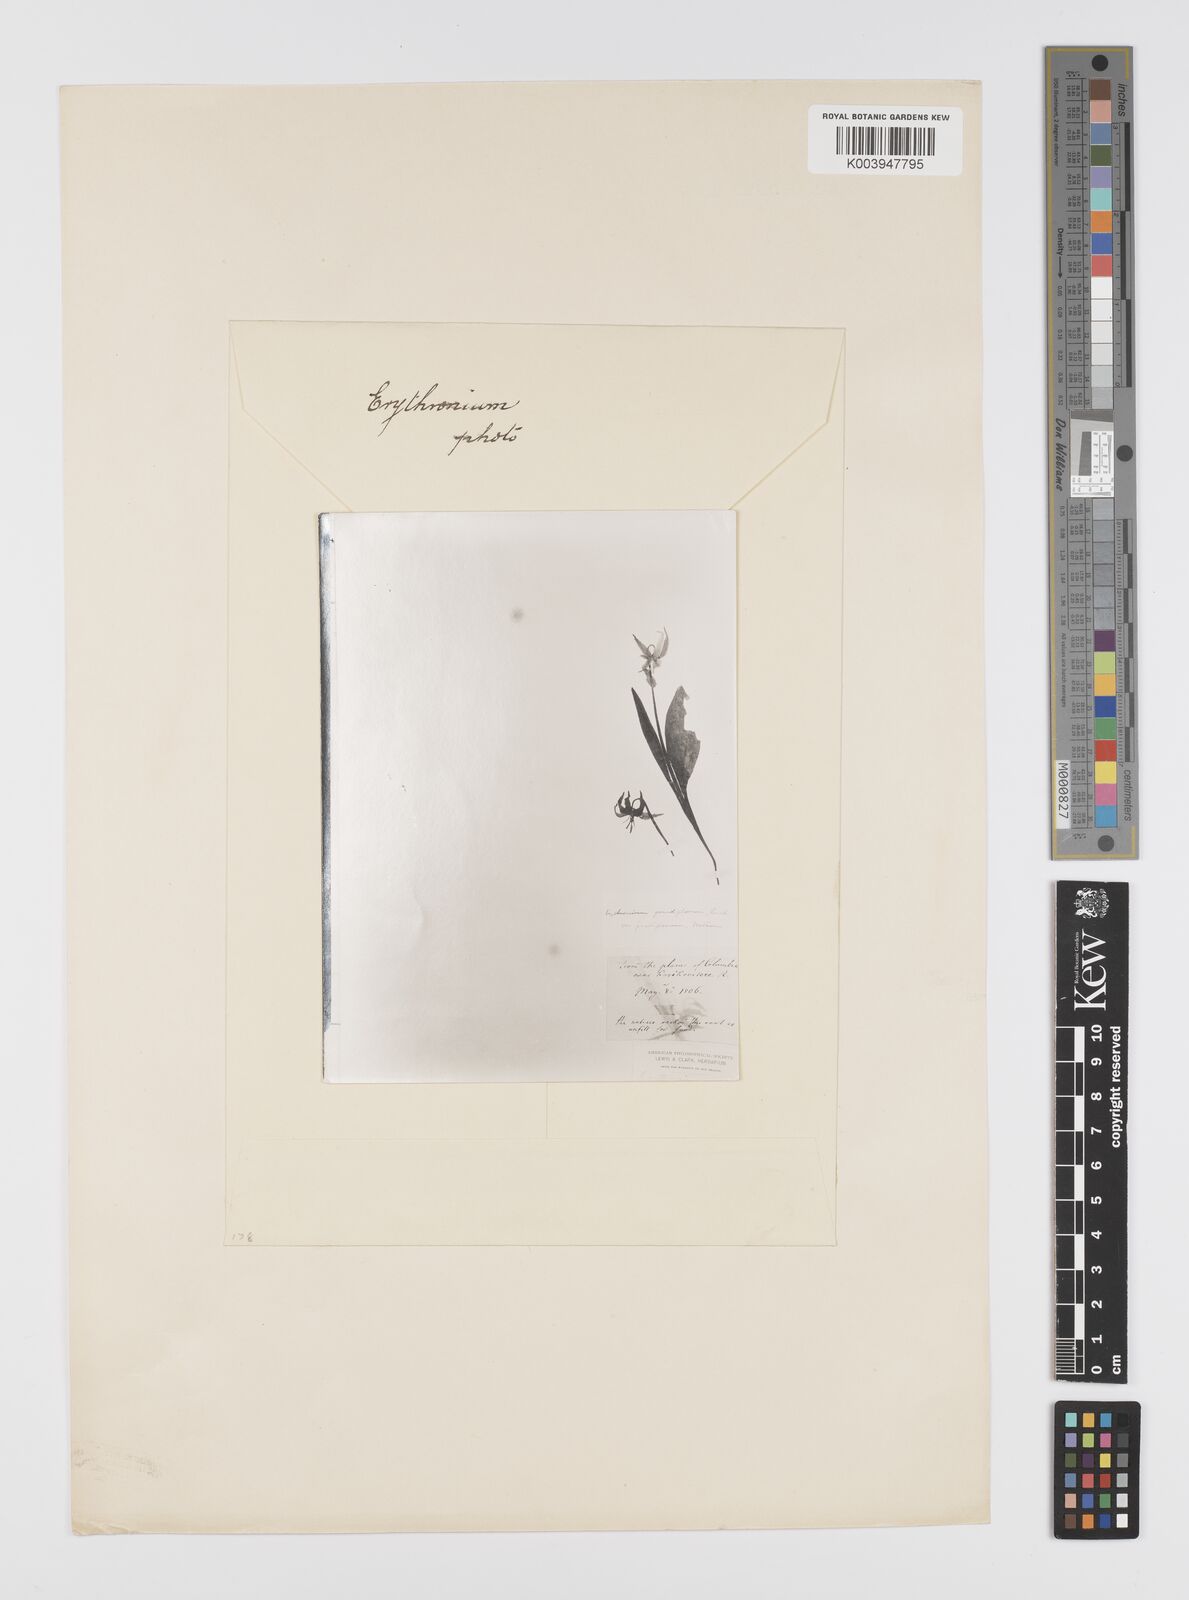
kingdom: Plantae
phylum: Tracheophyta
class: Liliopsida
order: Liliales
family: Liliaceae
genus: Erythronium
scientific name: Erythronium
